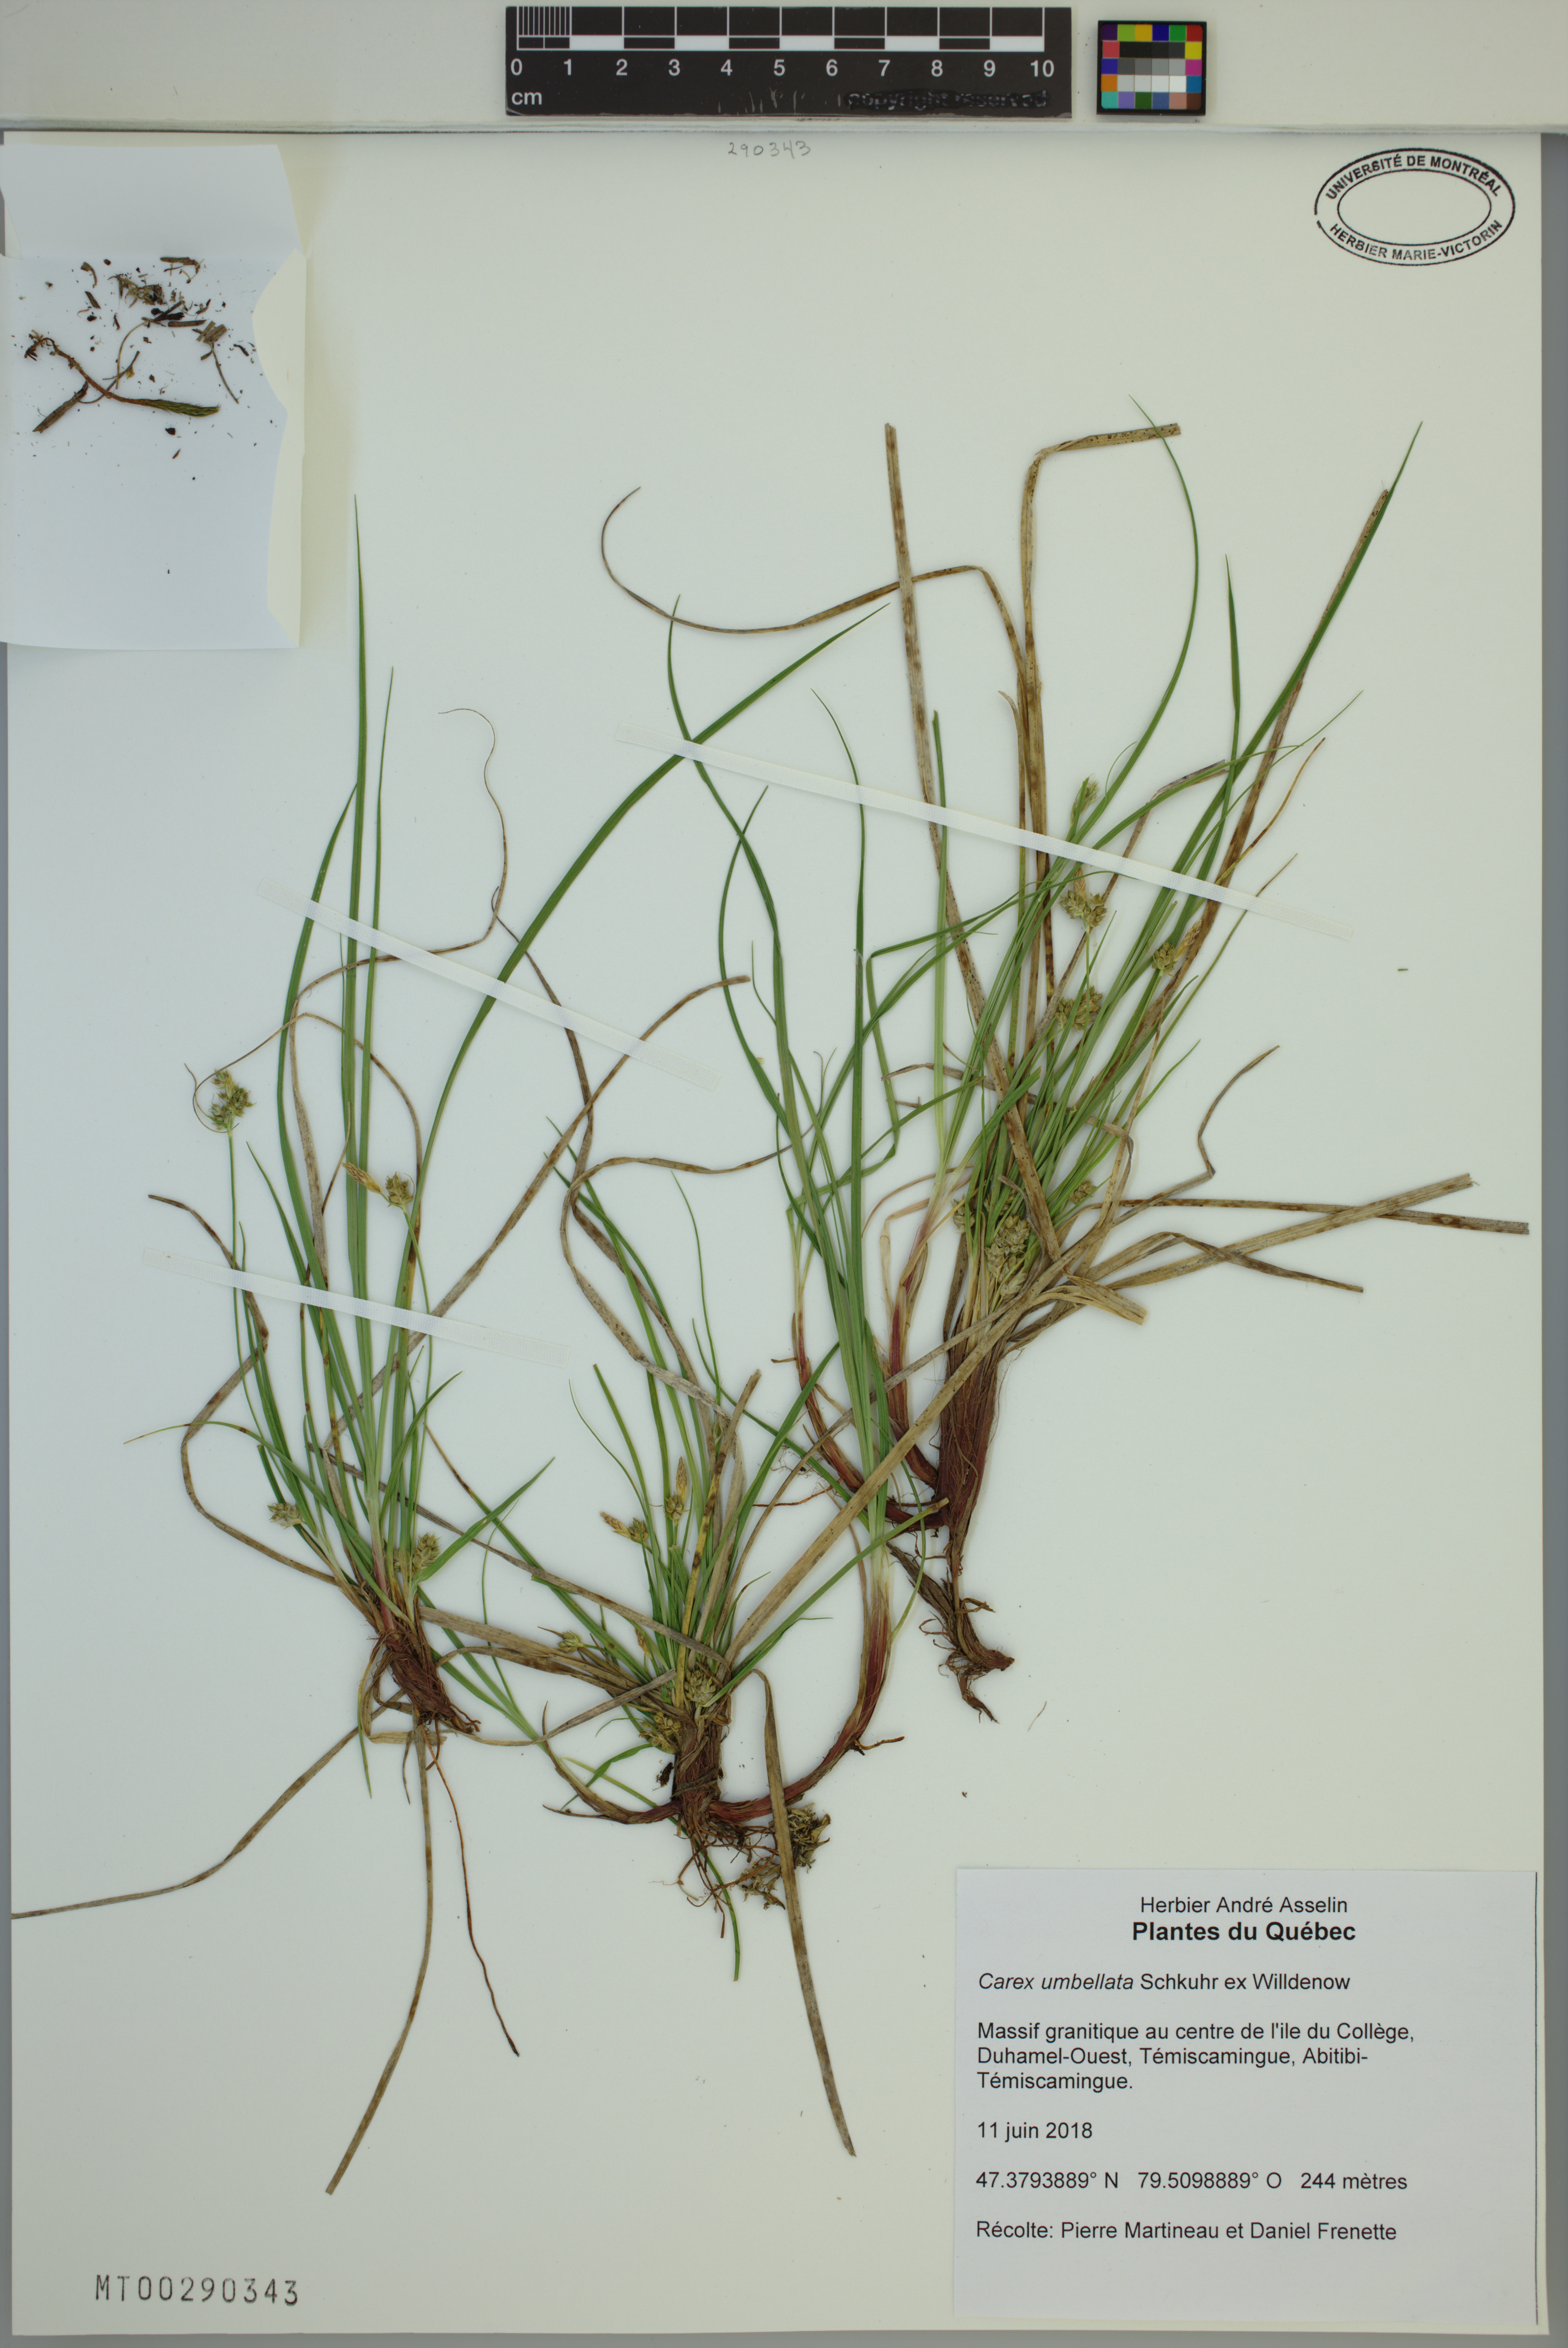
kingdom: Plantae
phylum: Tracheophyta
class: Liliopsida
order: Poales
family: Cyperaceae
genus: Carex
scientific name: Carex umbellata
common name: Early oak sedge
